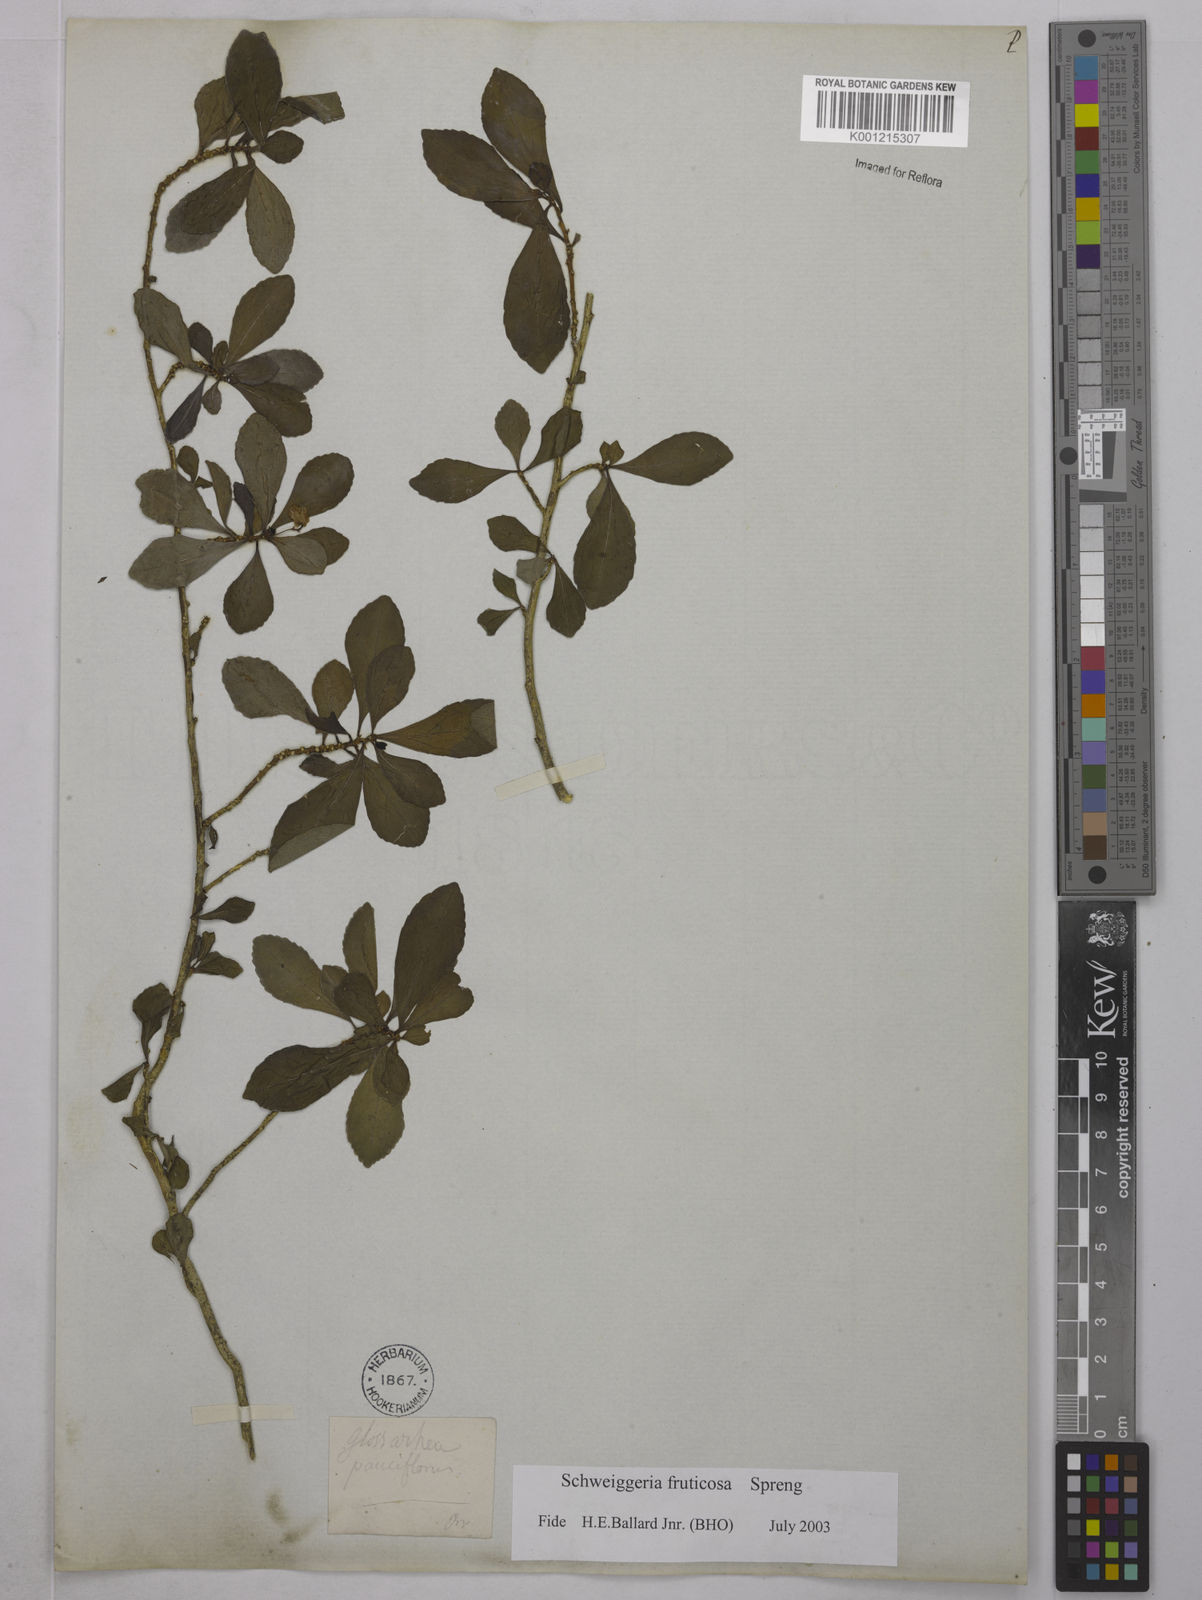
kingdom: Plantae
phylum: Tracheophyta
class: Magnoliopsida
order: Malpighiales
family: Violaceae
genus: Schweiggeria
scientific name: Schweiggeria fruticosa
